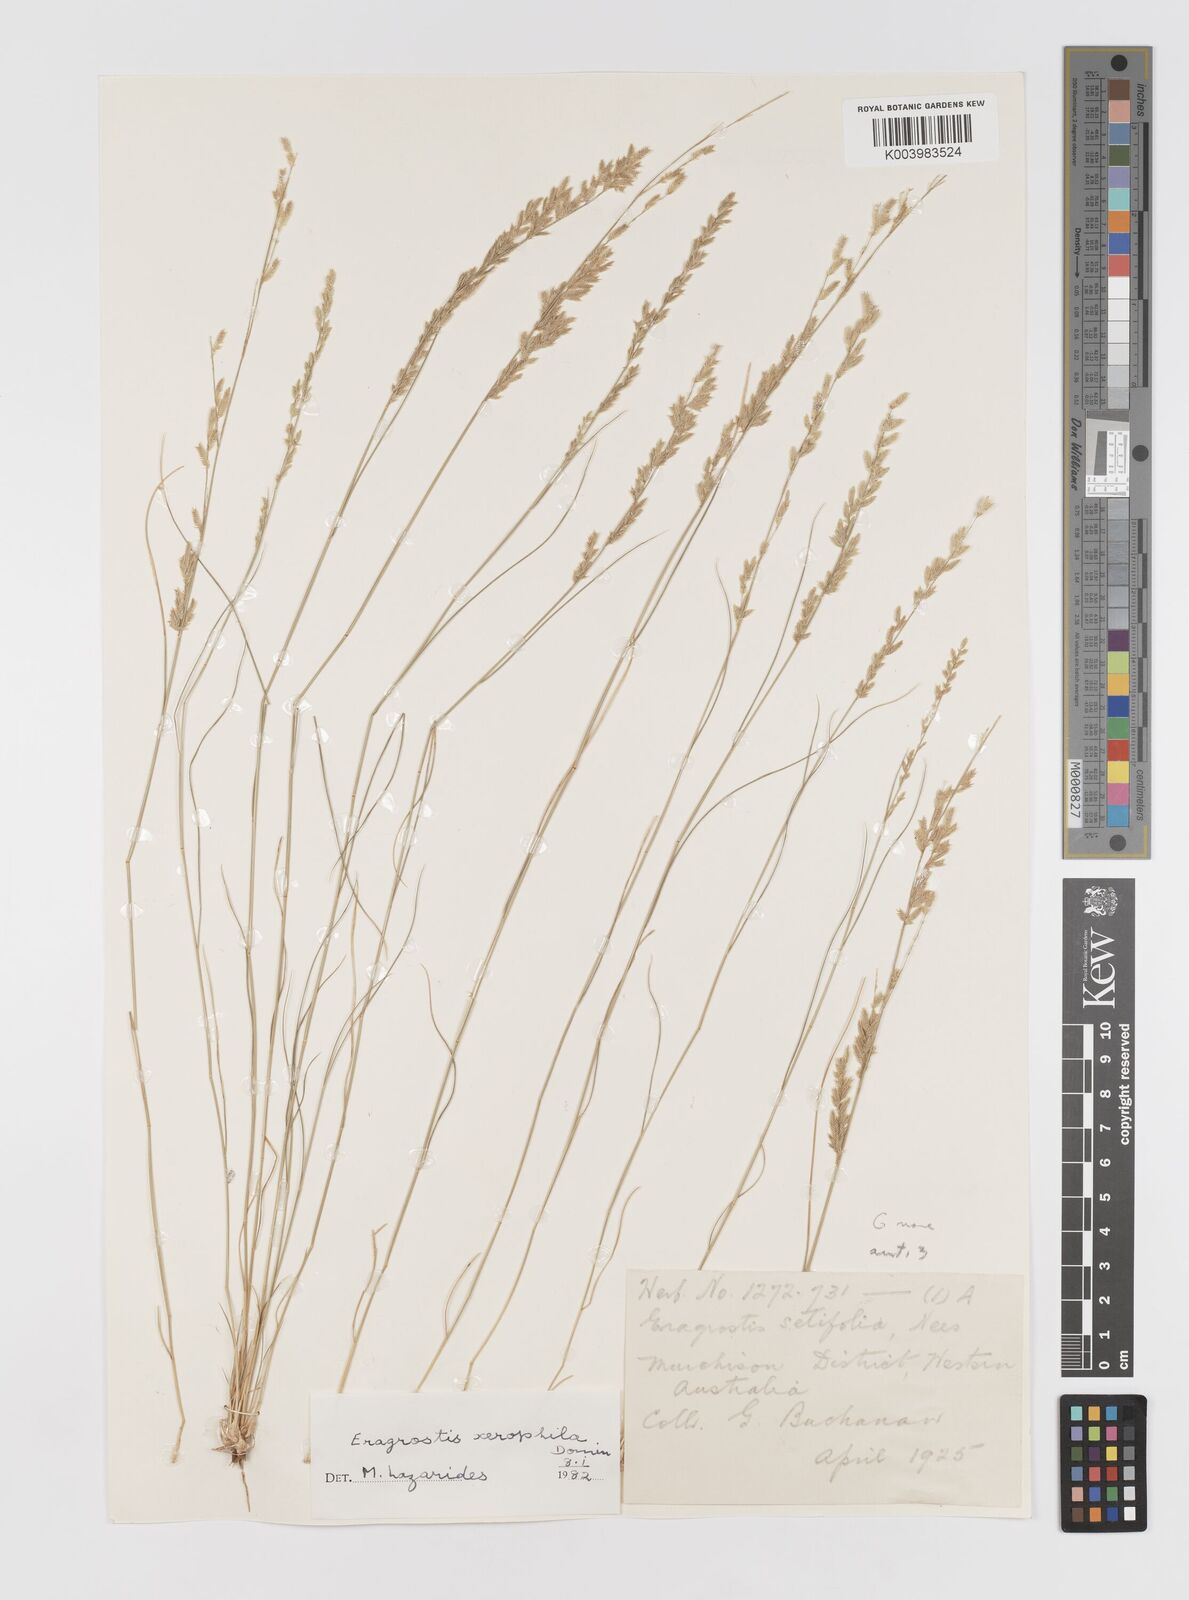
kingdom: Plantae
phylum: Tracheophyta
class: Liliopsida
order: Poales
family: Poaceae
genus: Eragrostis
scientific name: Eragrostis xerophila
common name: Wire wandarrie grass
